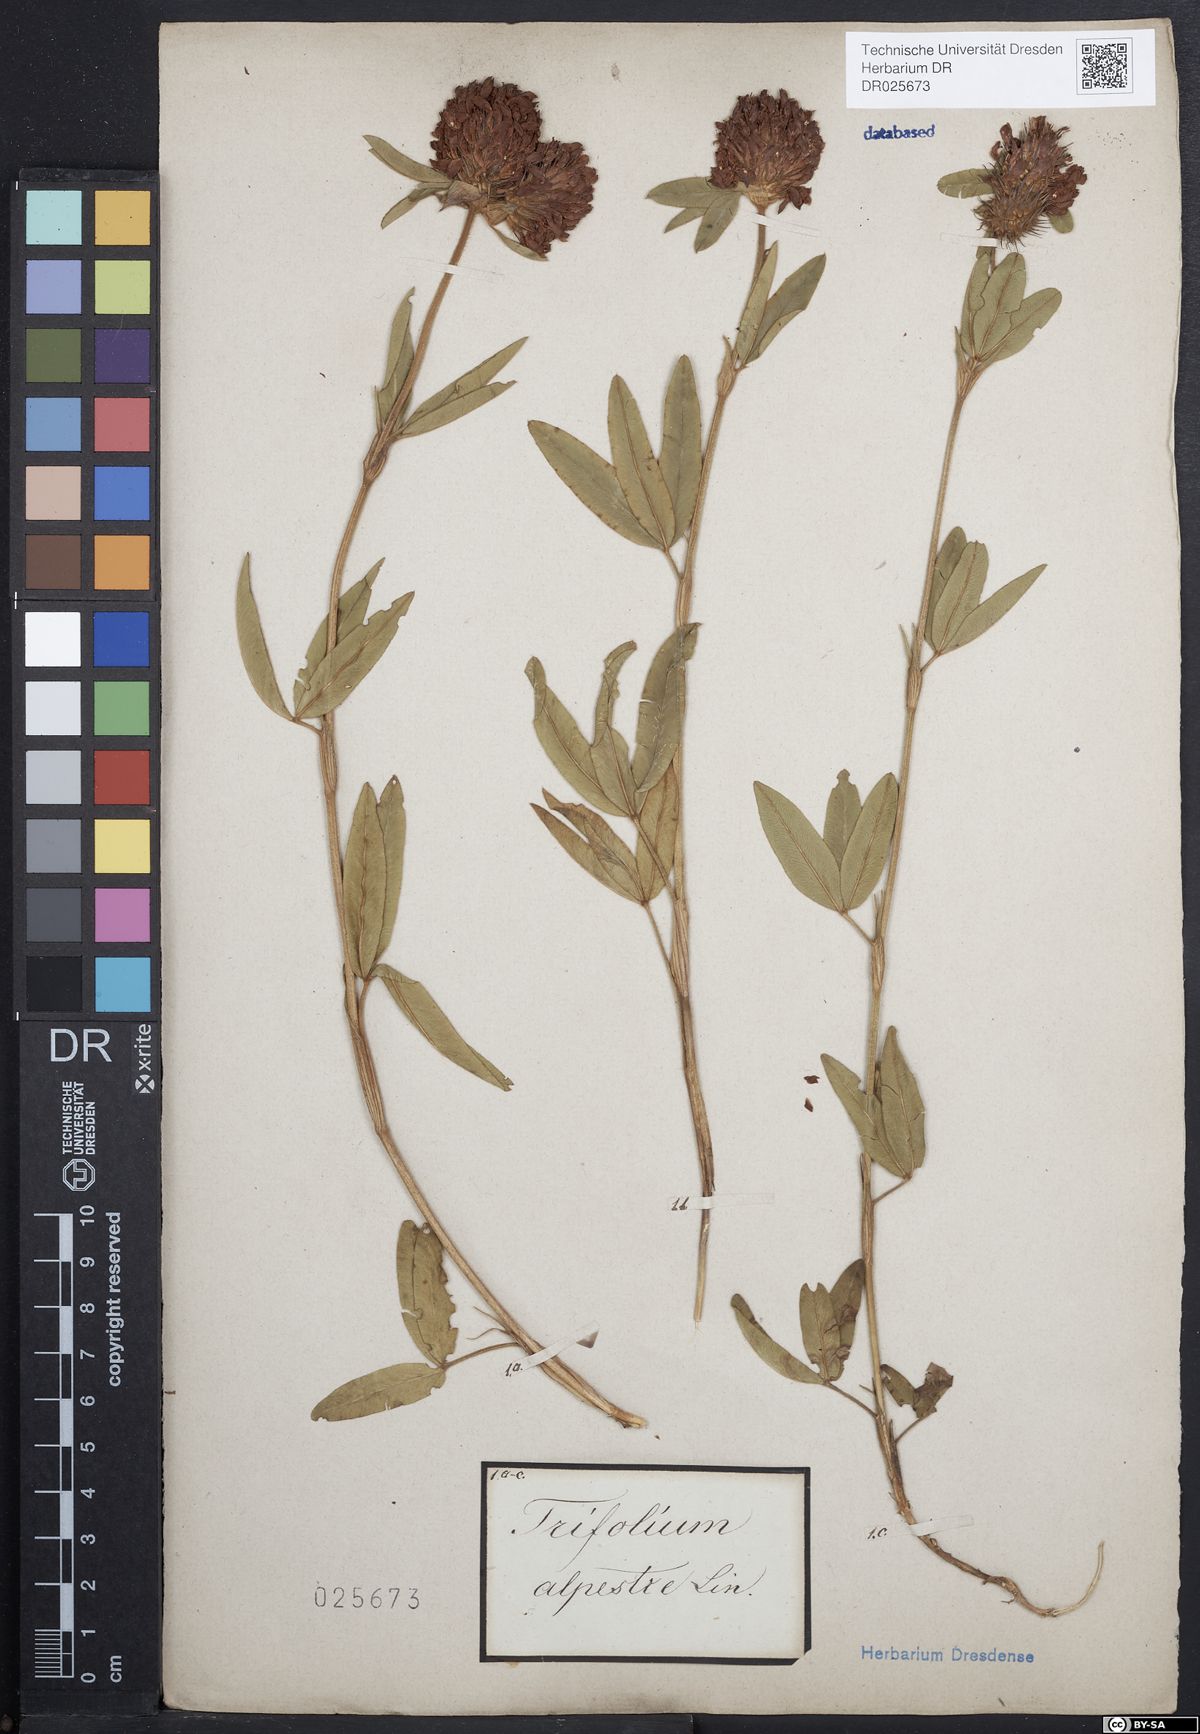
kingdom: Plantae
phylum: Tracheophyta
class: Magnoliopsida
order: Fabales
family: Fabaceae
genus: Trifolium
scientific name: Trifolium alpestre
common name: Owl-head clover
